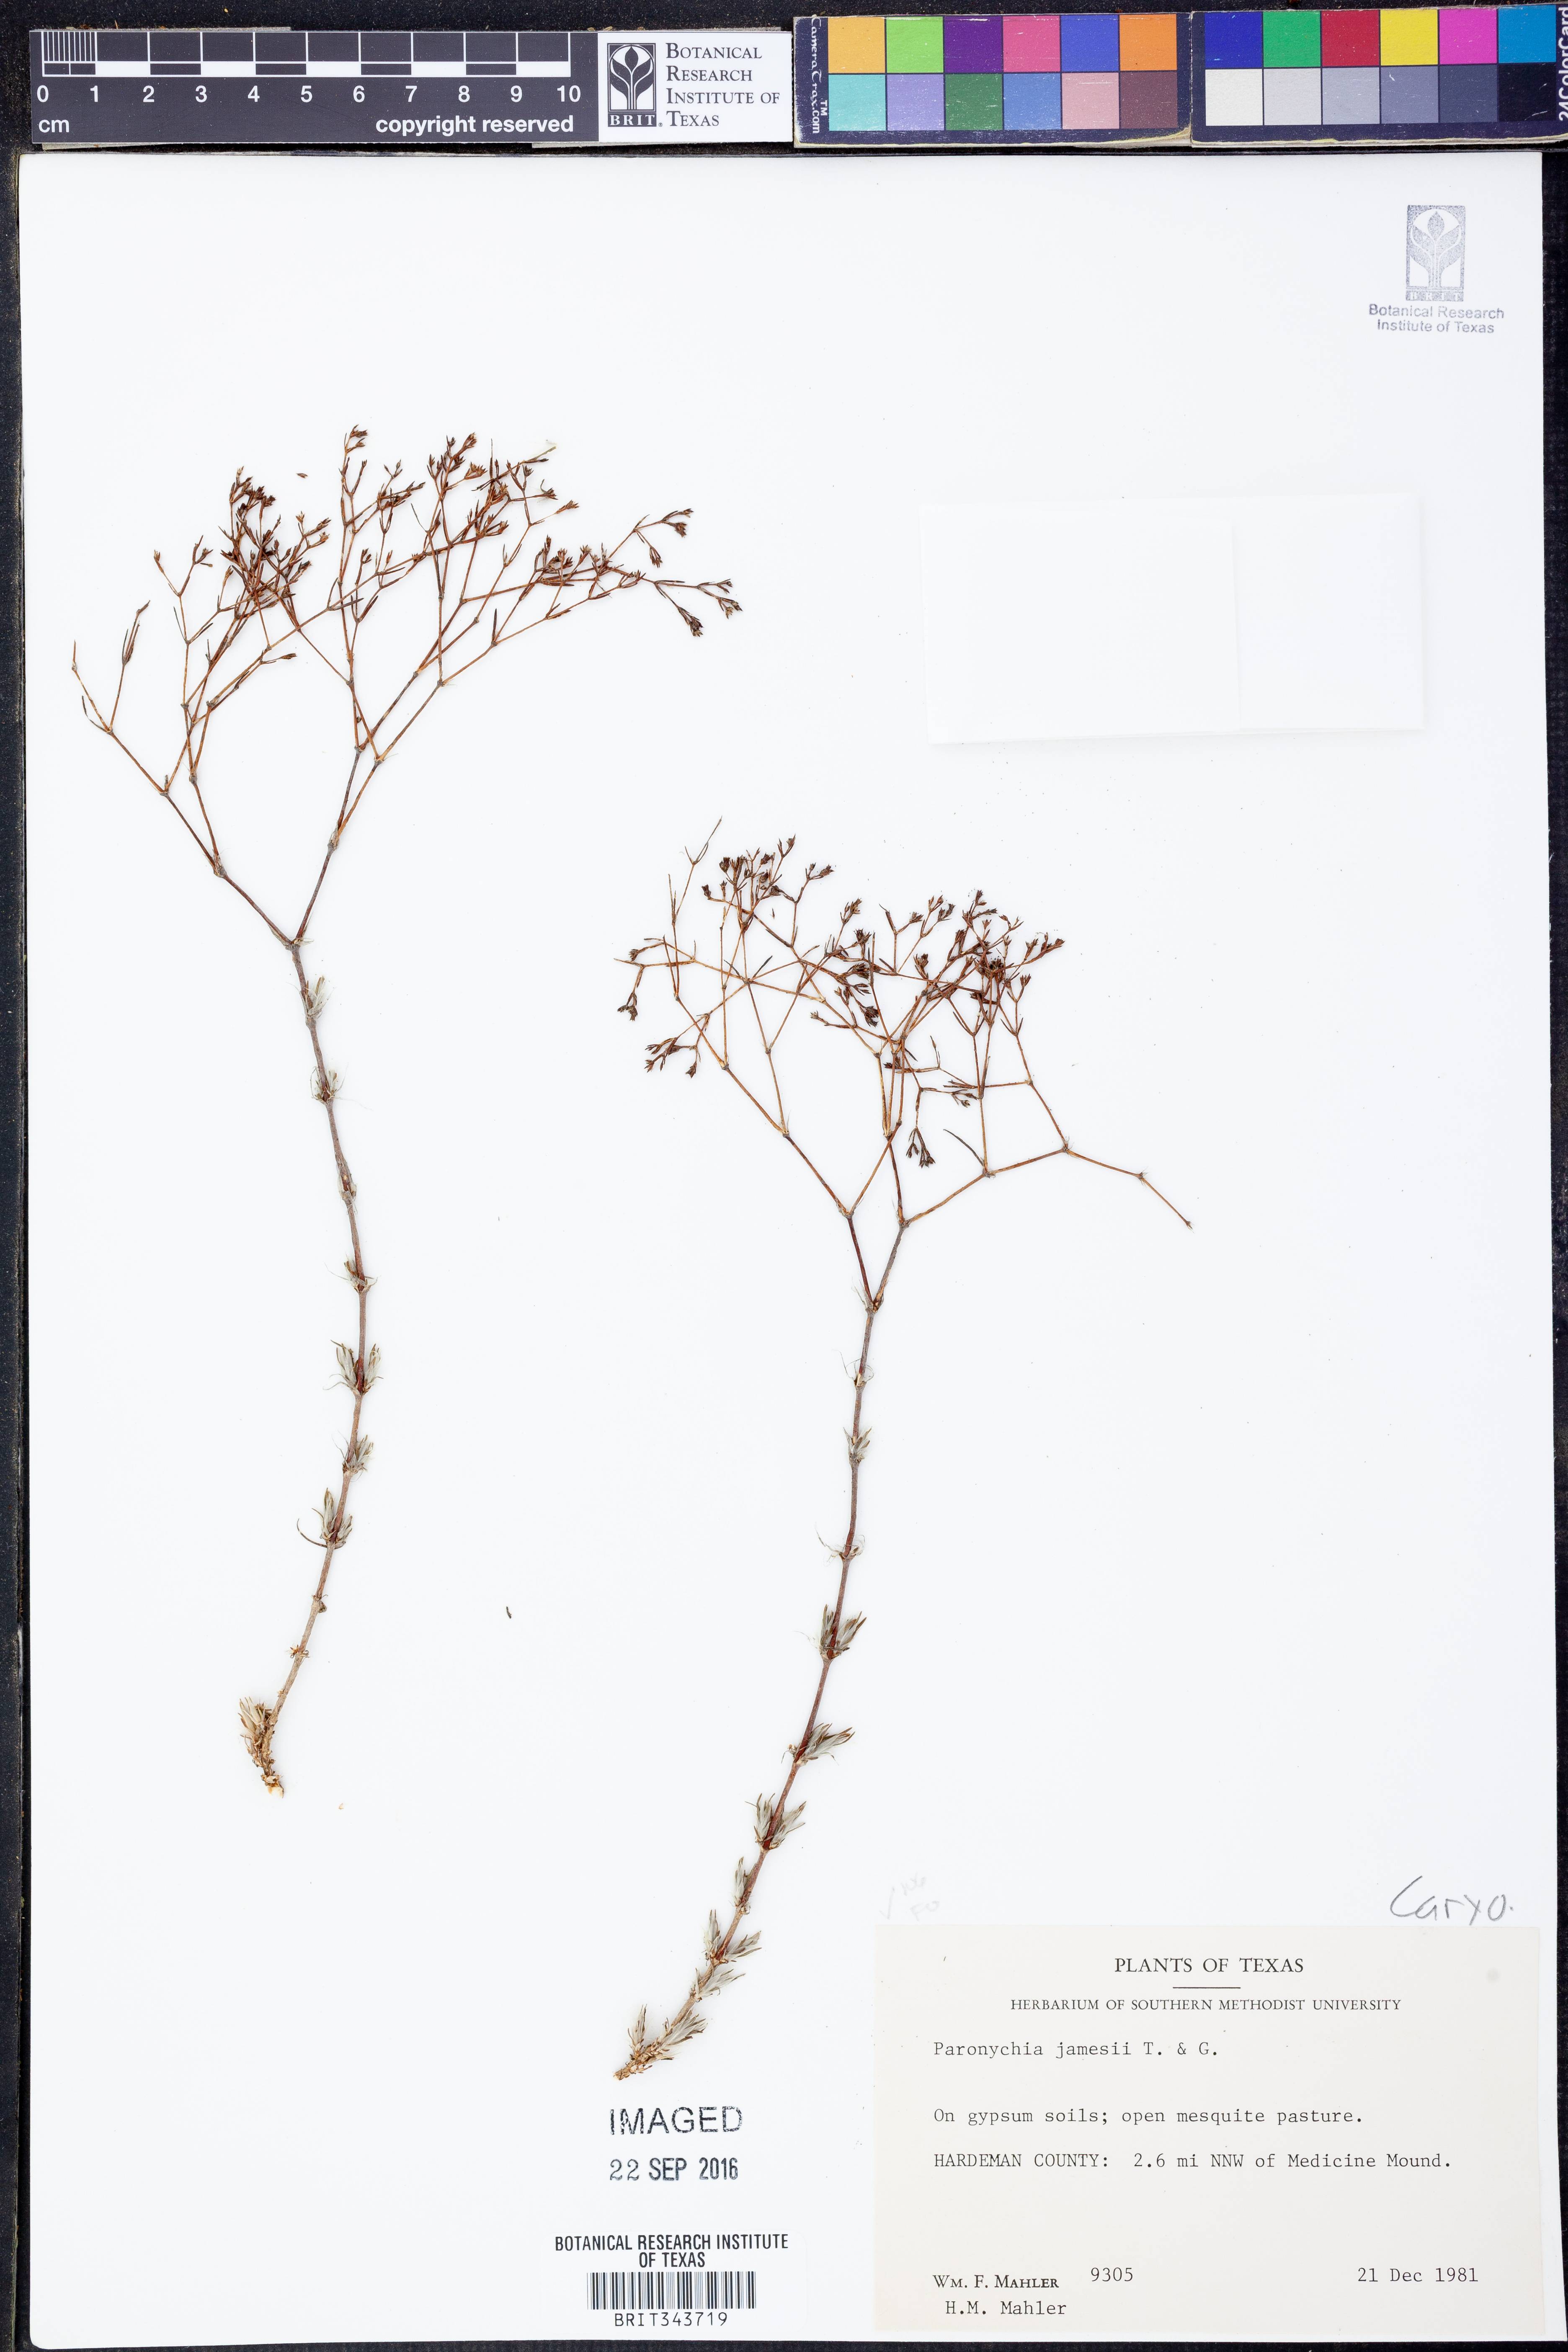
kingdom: Plantae
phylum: Tracheophyta
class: Magnoliopsida
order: Caryophyllales
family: Caryophyllaceae
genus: Paronychia
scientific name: Paronychia jamesii
